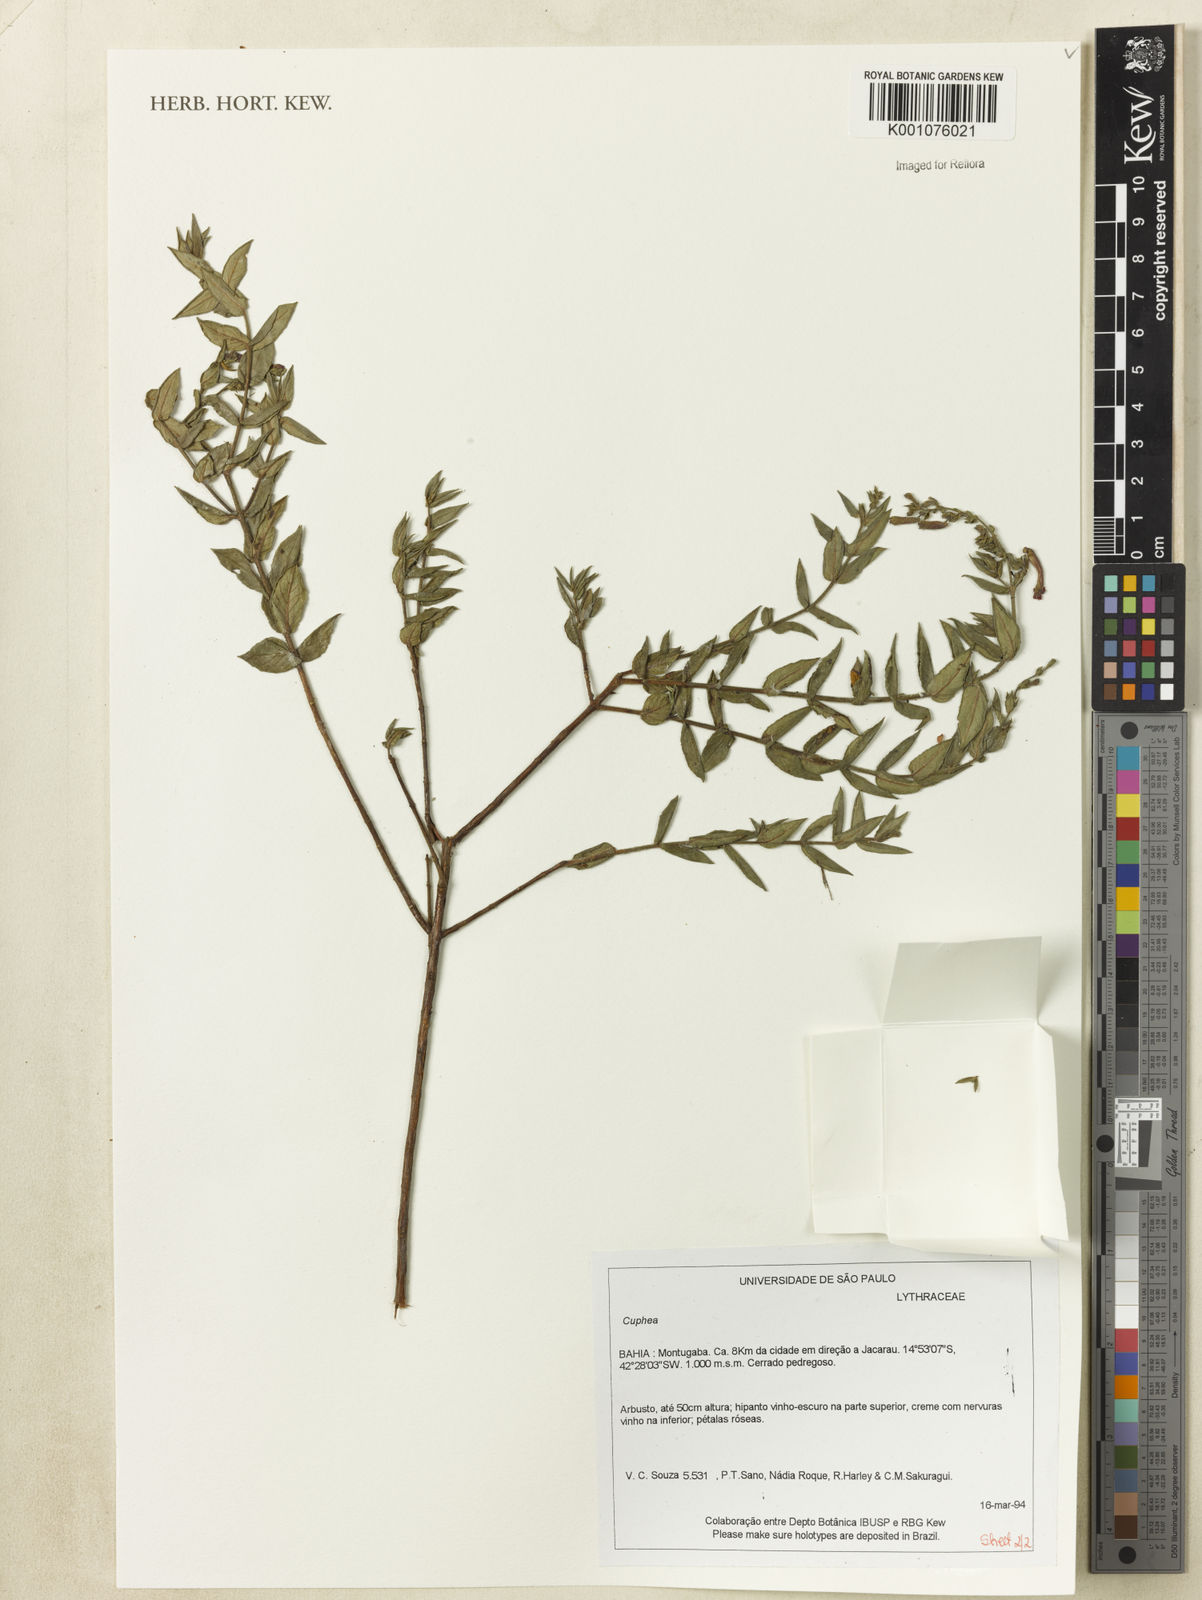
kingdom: Plantae
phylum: Tracheophyta
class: Magnoliopsida
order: Myrtales
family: Lythraceae
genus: Cuphea
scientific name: Cuphea
